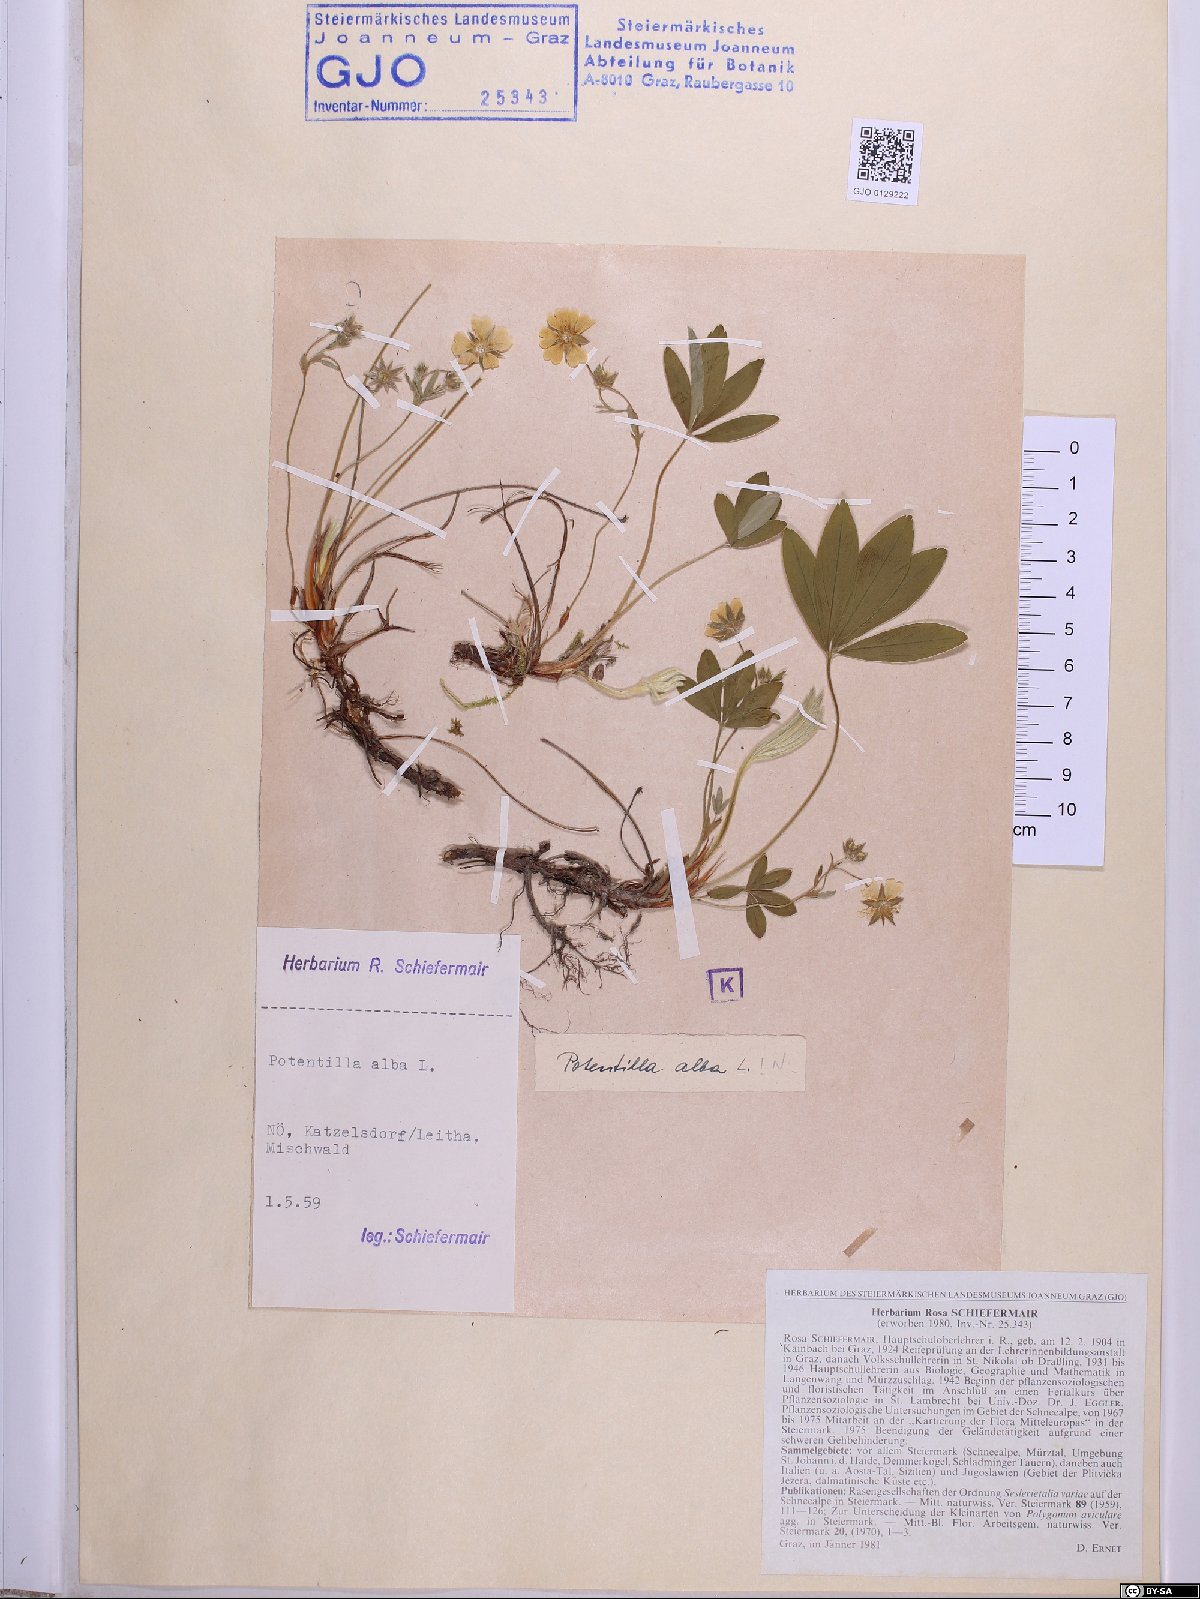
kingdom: Plantae
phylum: Tracheophyta
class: Magnoliopsida
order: Rosales
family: Rosaceae
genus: Potentilla
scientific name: Potentilla alba
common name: White cinquefoil
